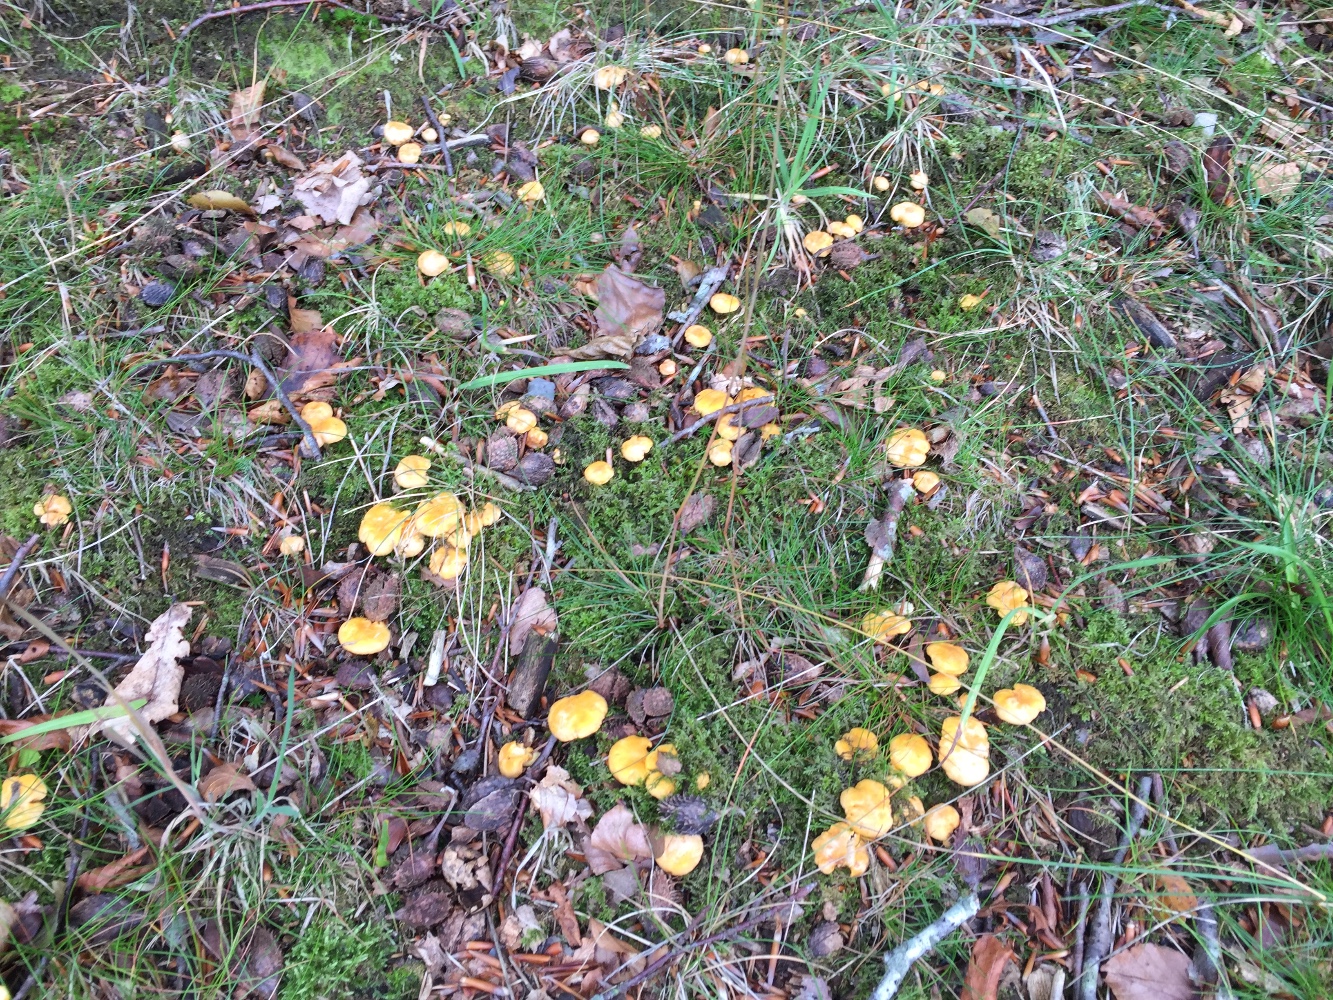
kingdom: Fungi
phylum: Basidiomycota
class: Agaricomycetes
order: Cantharellales
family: Hydnaceae
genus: Cantharellus
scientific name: Cantharellus cibarius
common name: almindelig kantarel
